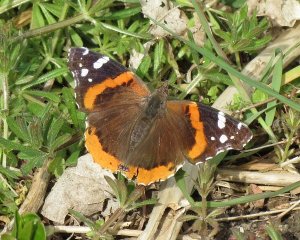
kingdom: Animalia
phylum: Arthropoda
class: Insecta
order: Lepidoptera
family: Nymphalidae
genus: Vanessa
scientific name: Vanessa atalanta
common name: Red Admiral
